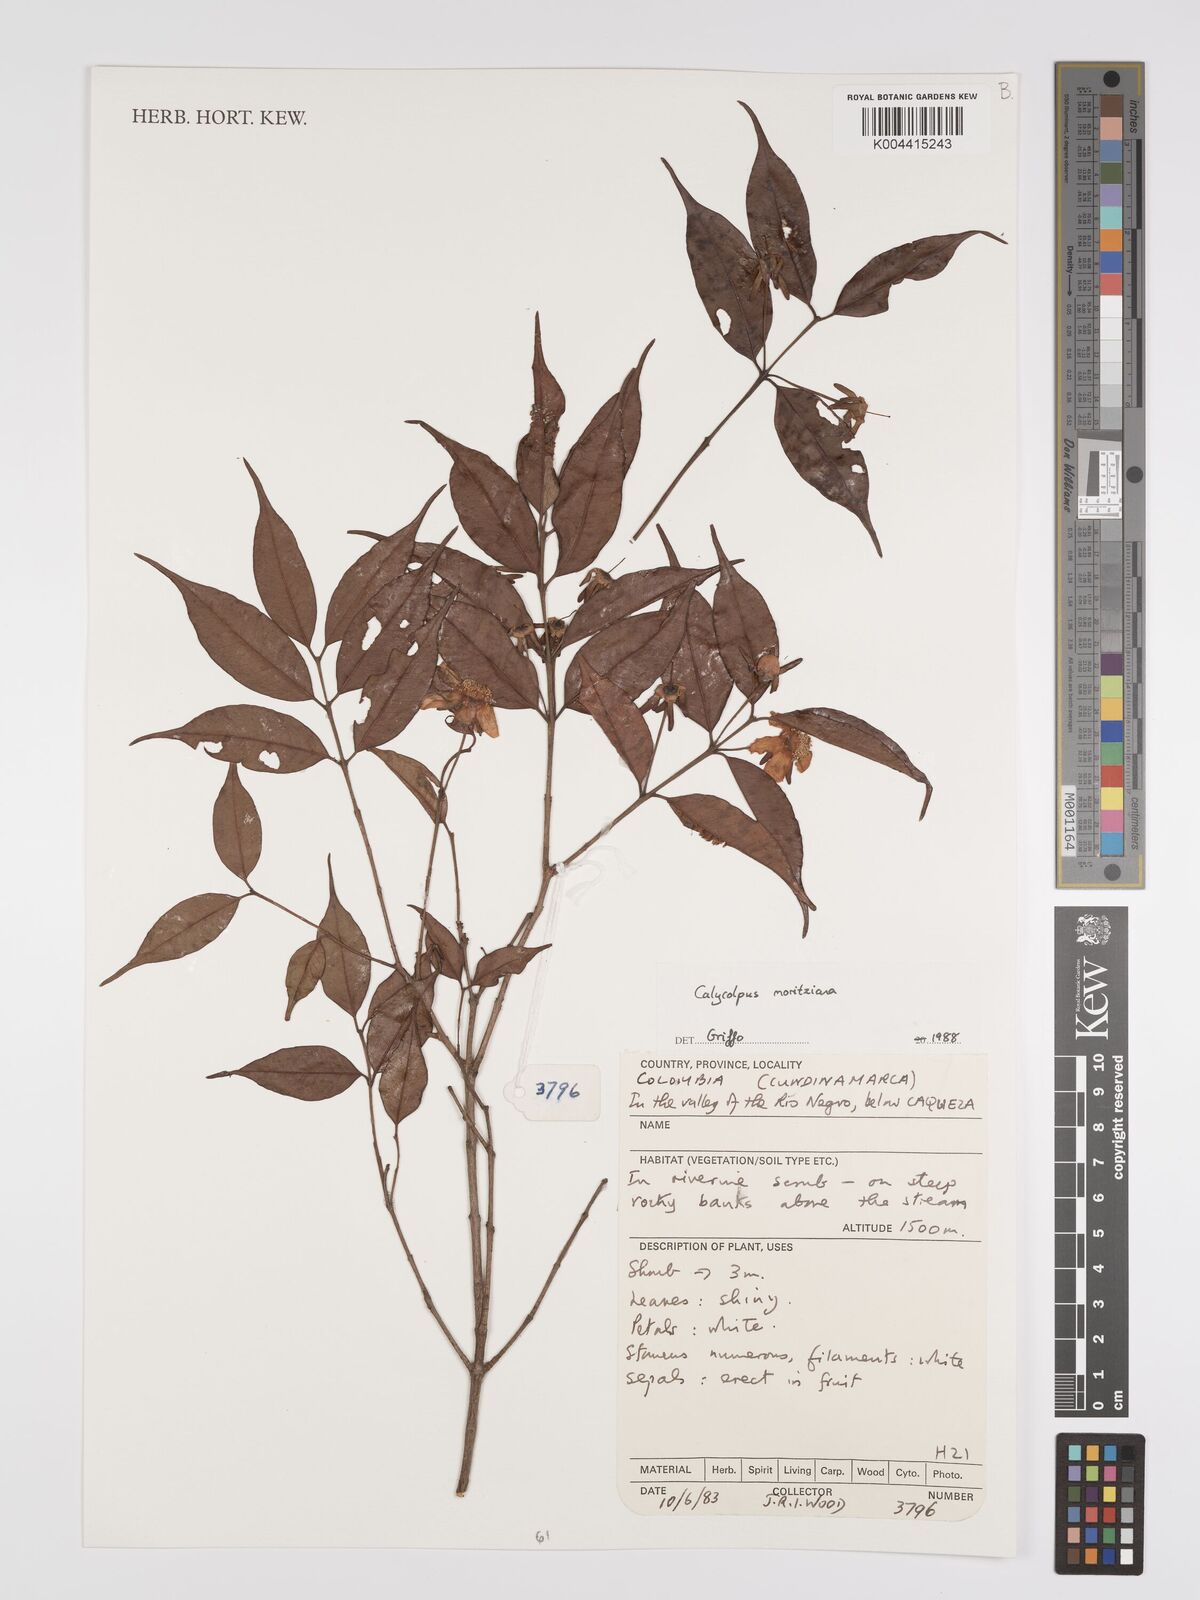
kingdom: Plantae
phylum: Tracheophyta
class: Magnoliopsida
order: Myrtales
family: Myrtaceae
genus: Calycolpus
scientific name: Calycolpus moritzianus
